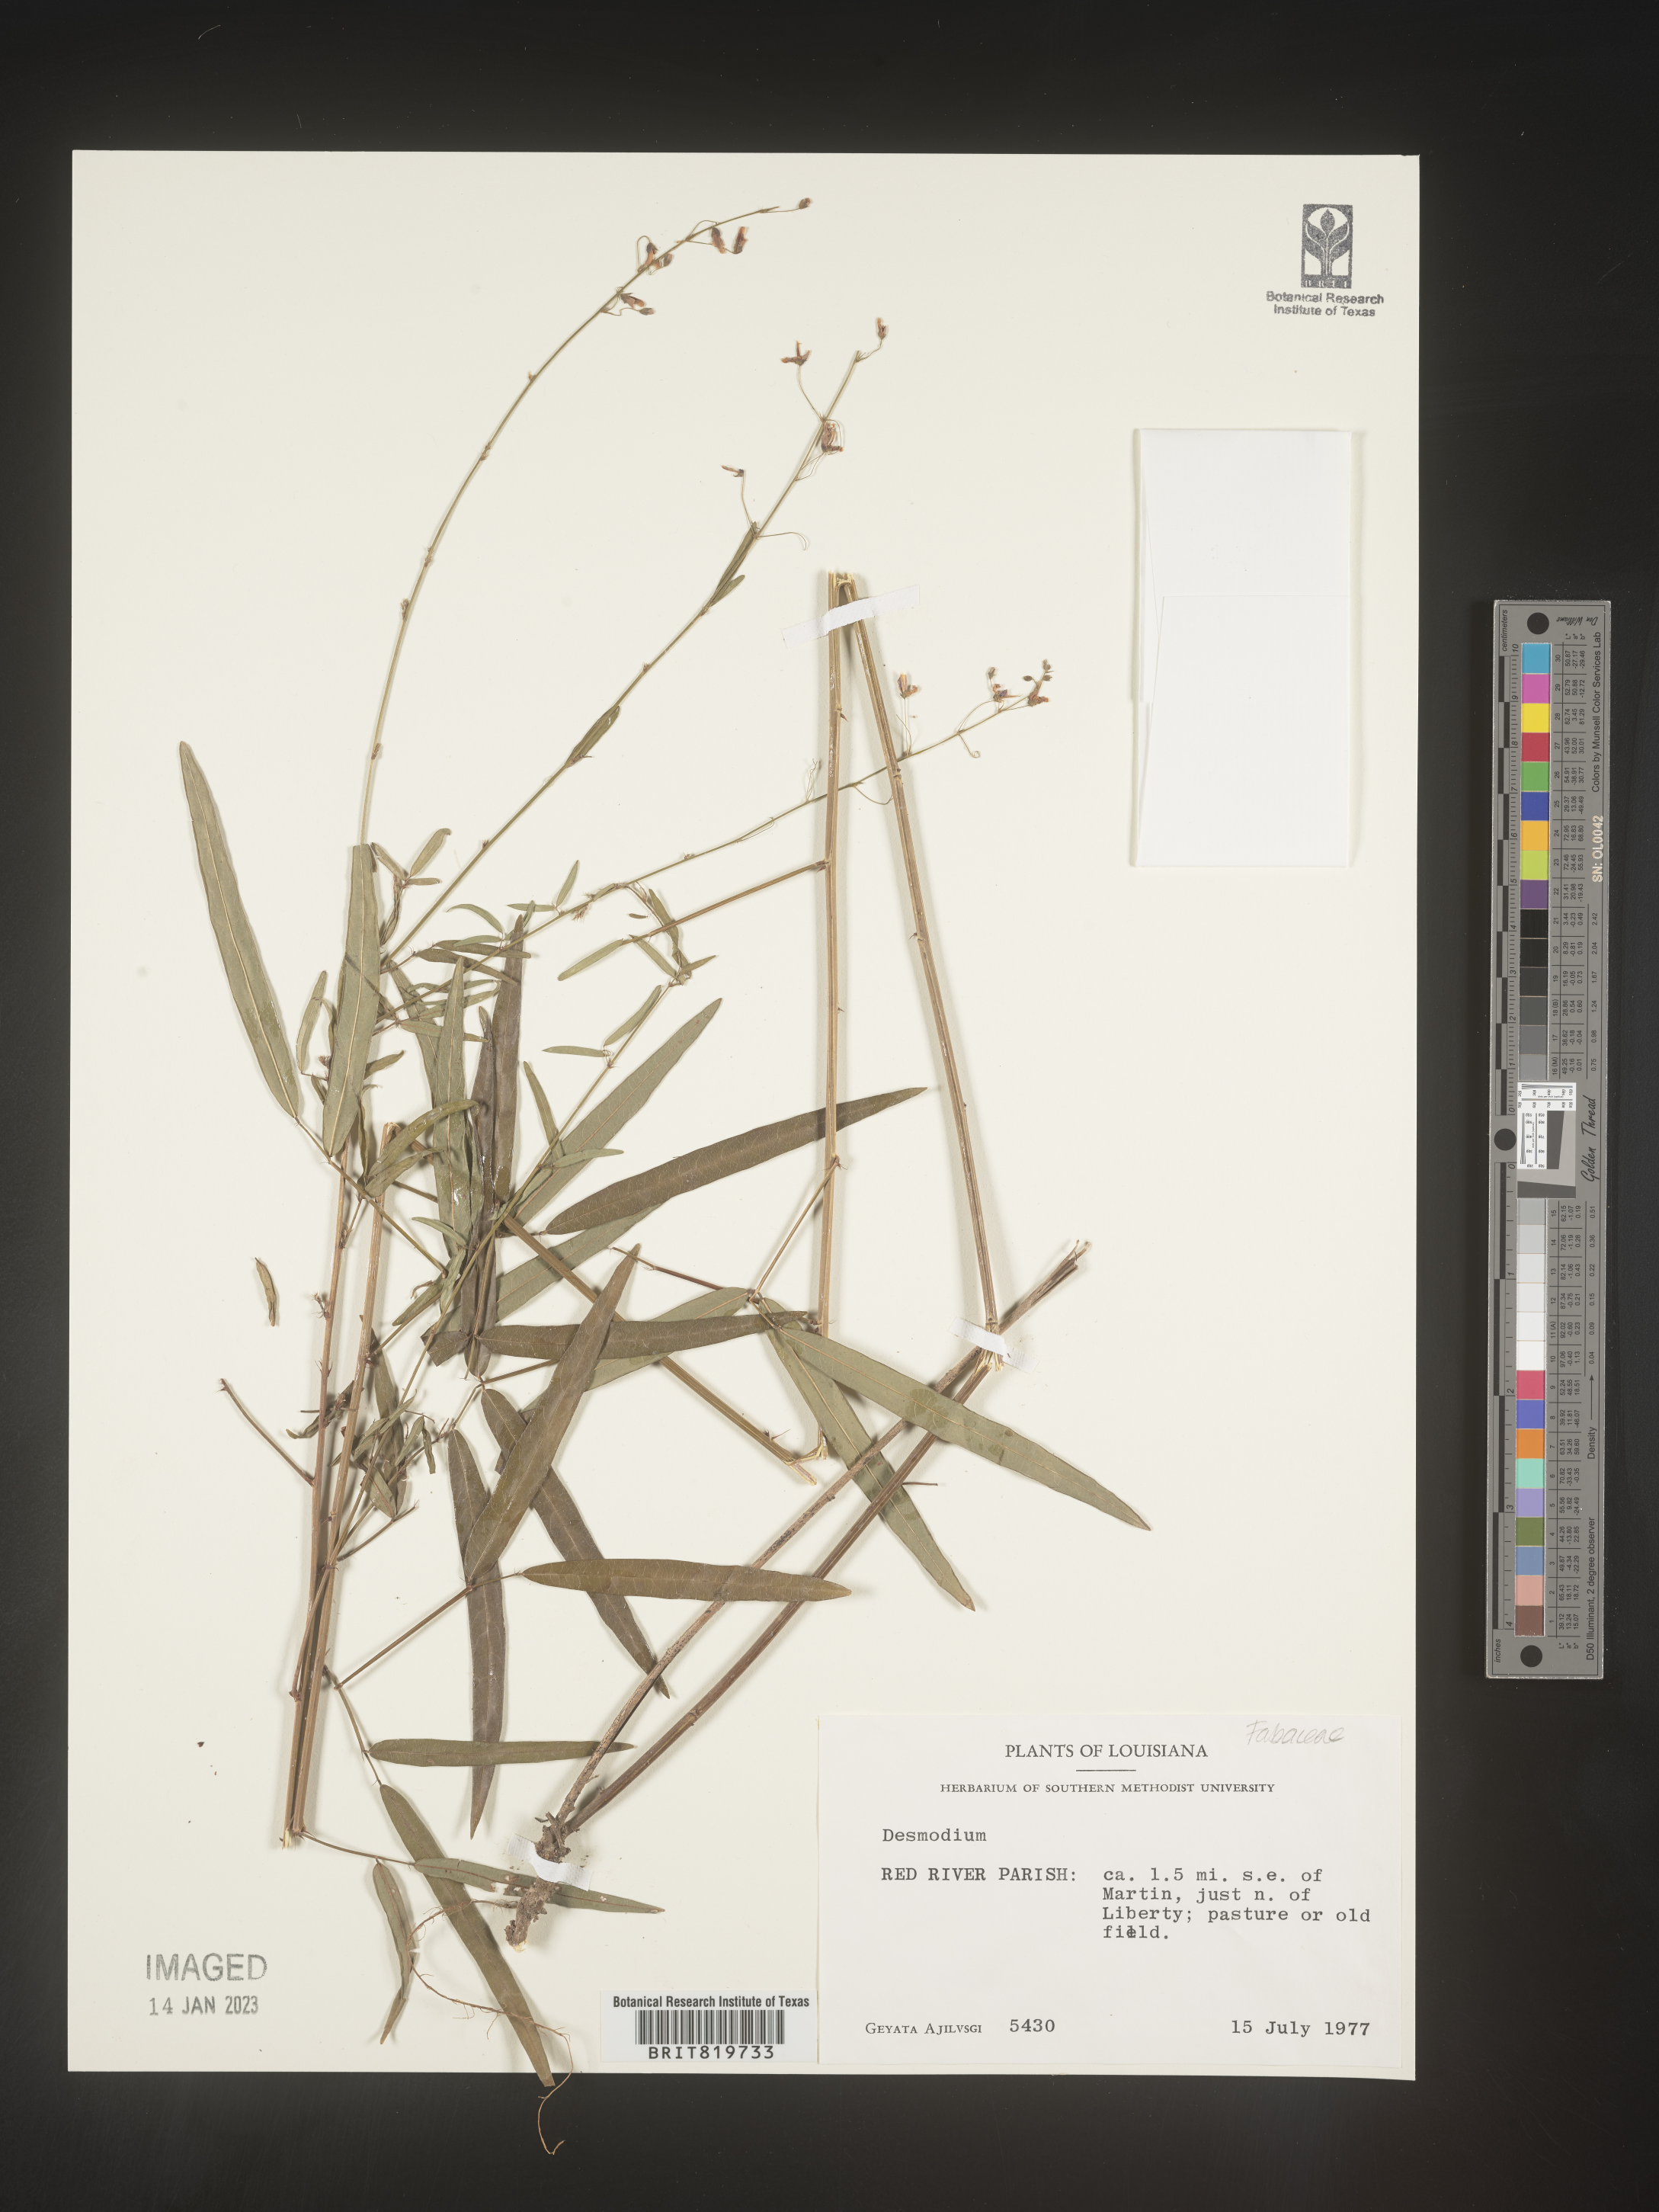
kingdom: Plantae
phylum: Tracheophyta
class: Magnoliopsida
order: Fabales
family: Fabaceae
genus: Desmodium
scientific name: Desmodium
